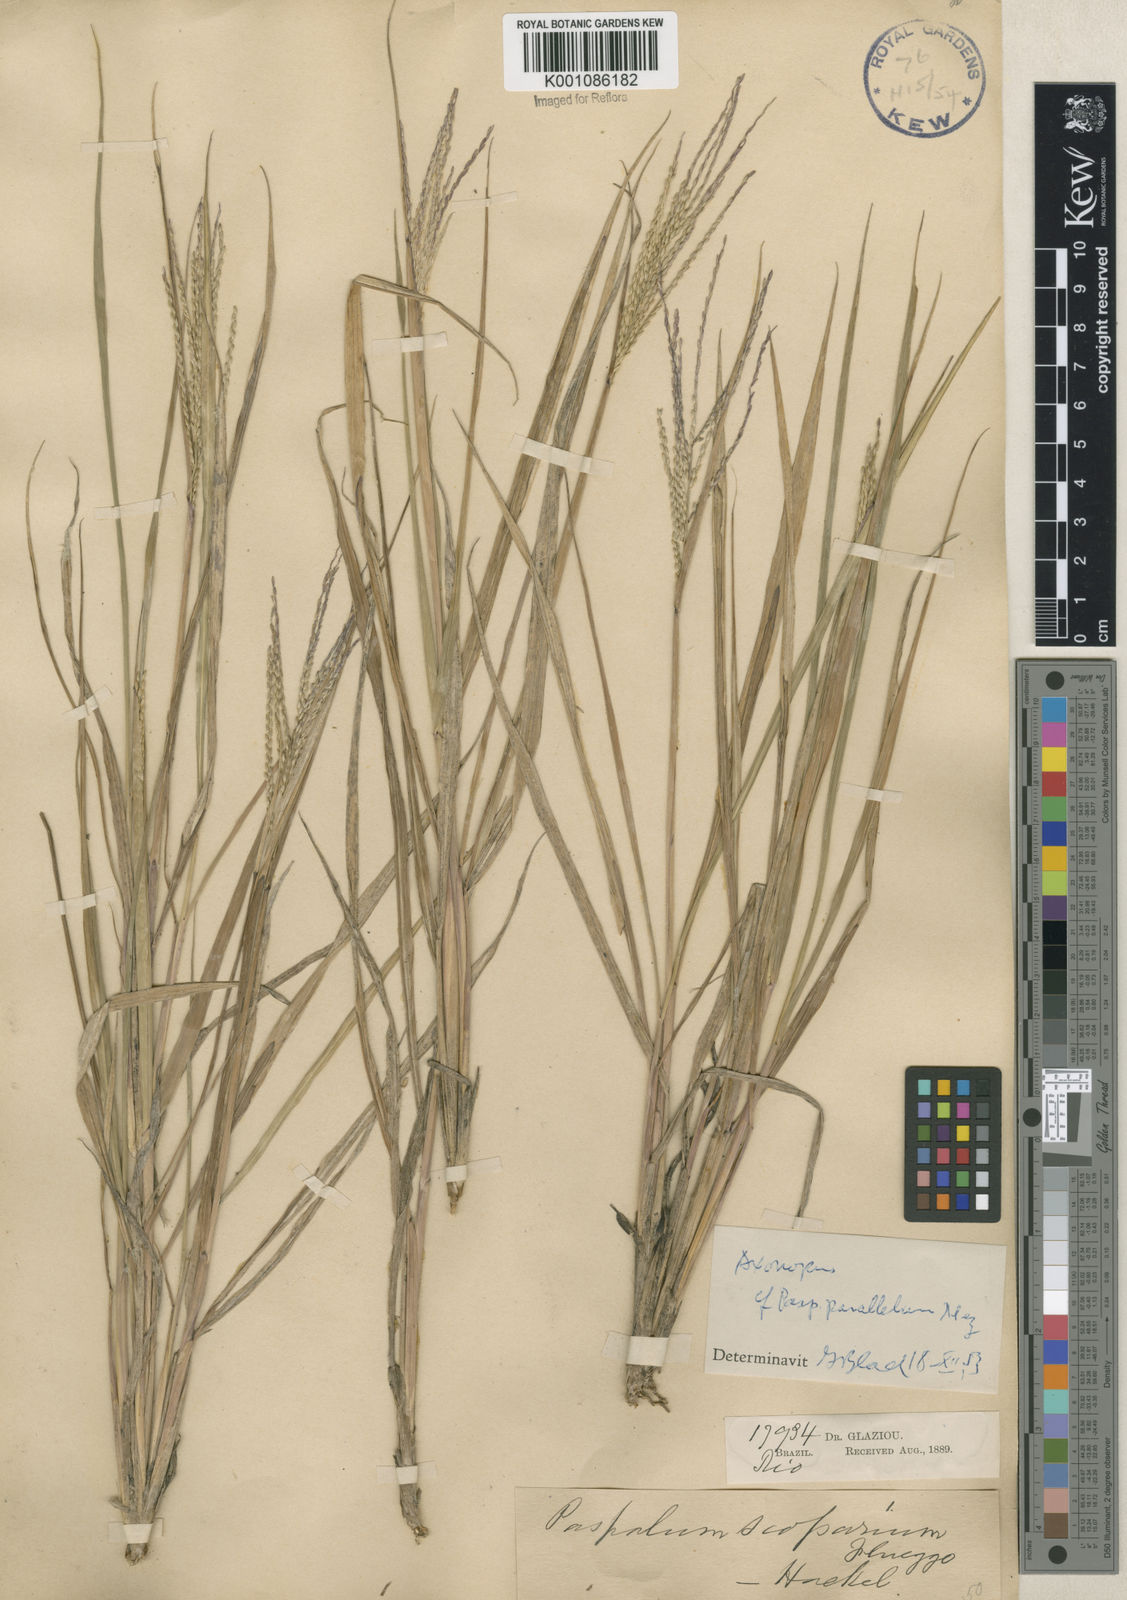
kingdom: Plantae
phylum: Tracheophyta
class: Liliopsida
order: Poales
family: Poaceae
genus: Axonopus
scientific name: Axonopus
